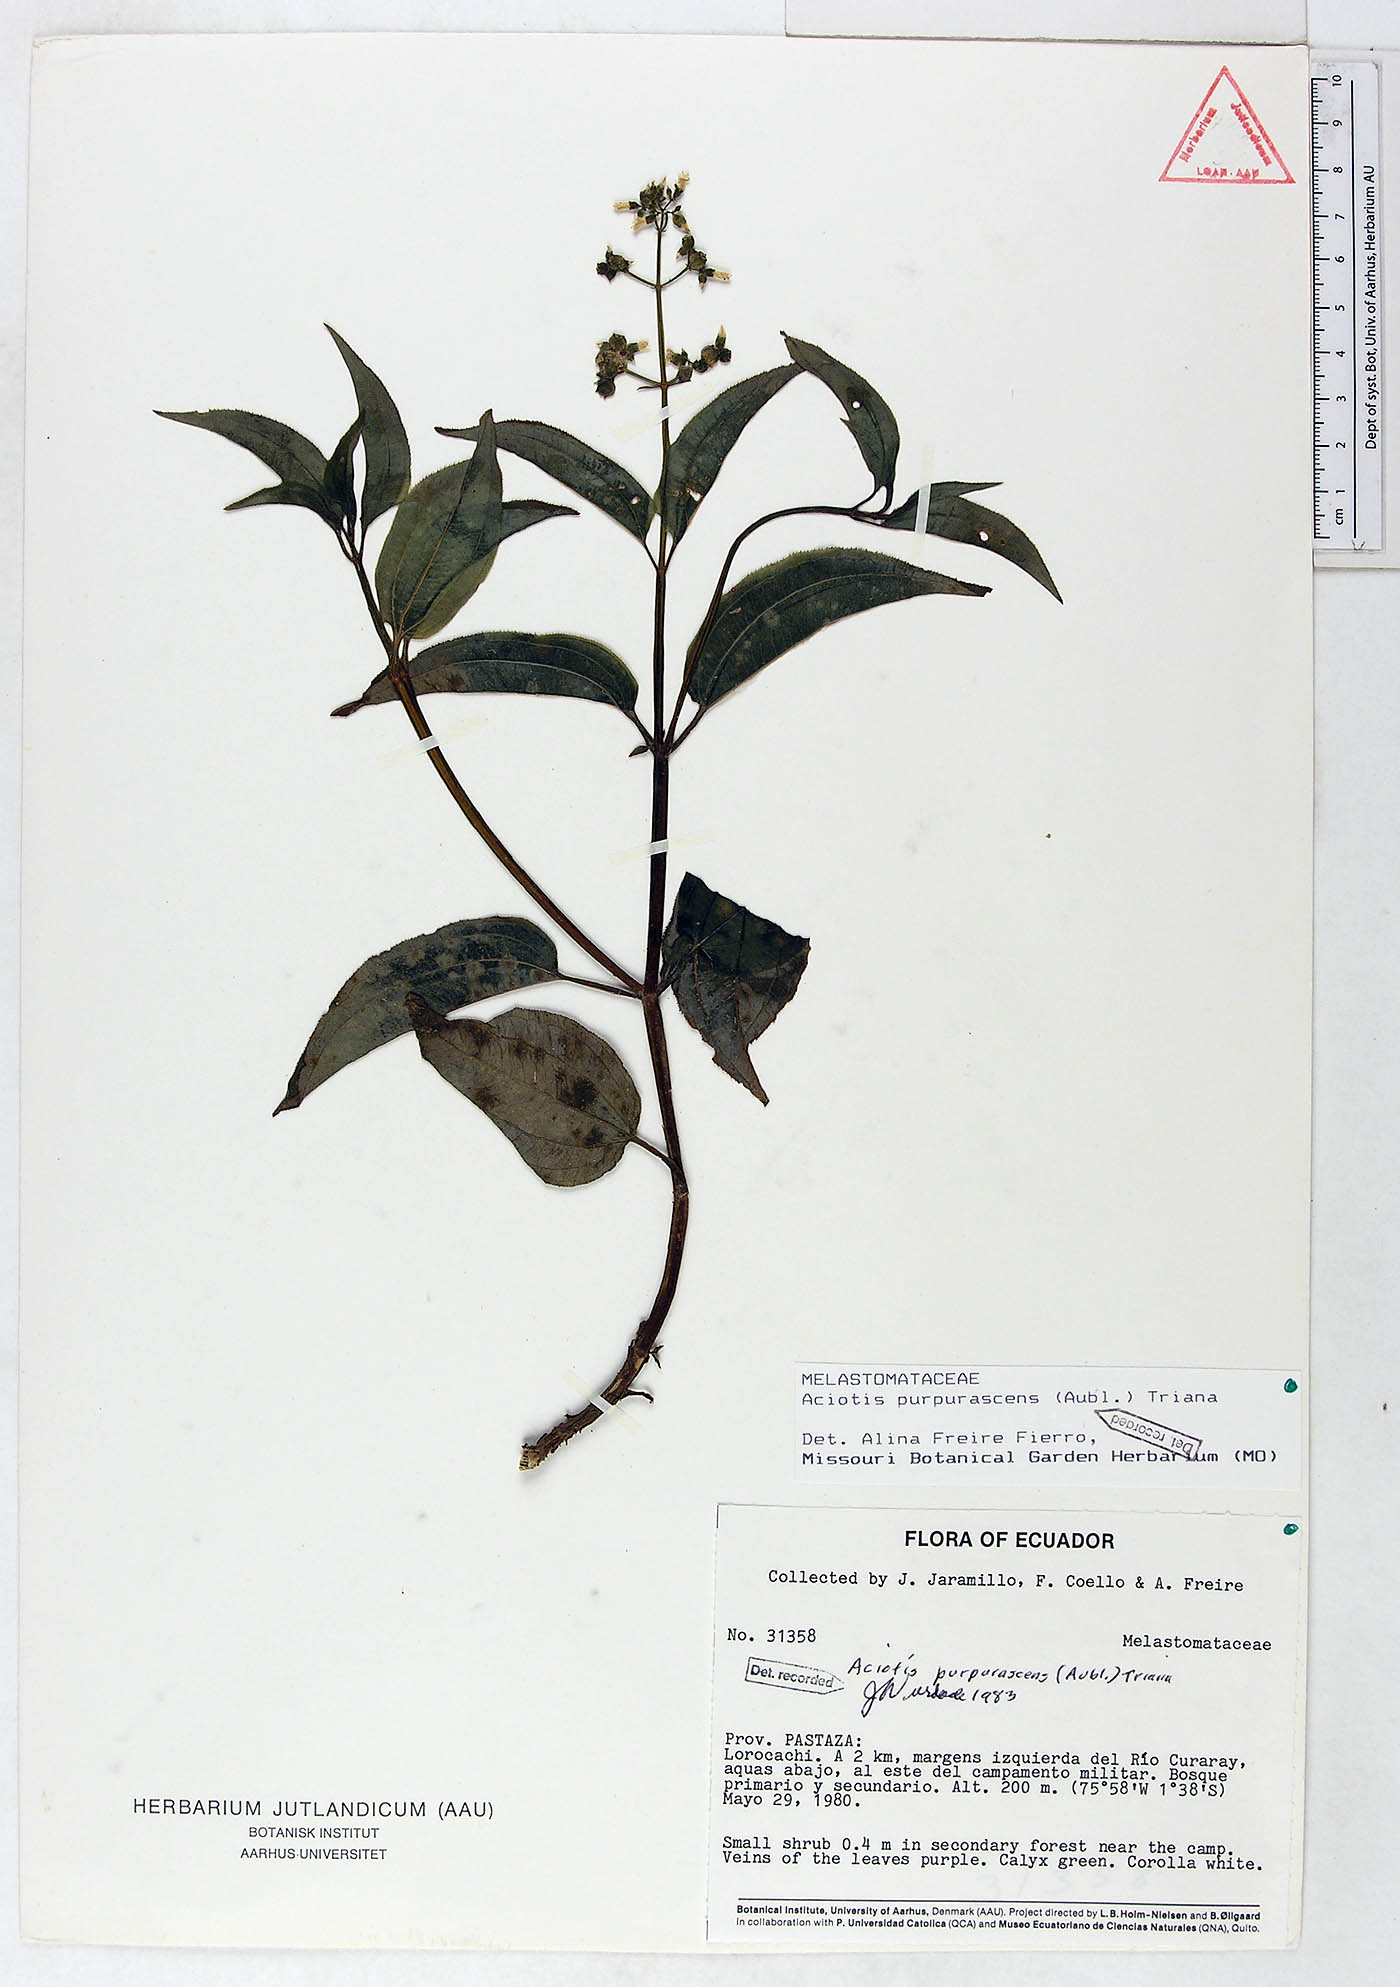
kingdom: Plantae
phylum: Tracheophyta
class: Magnoliopsida
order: Myrtales
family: Melastomataceae
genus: Aciotis
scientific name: Aciotis purpurascens
